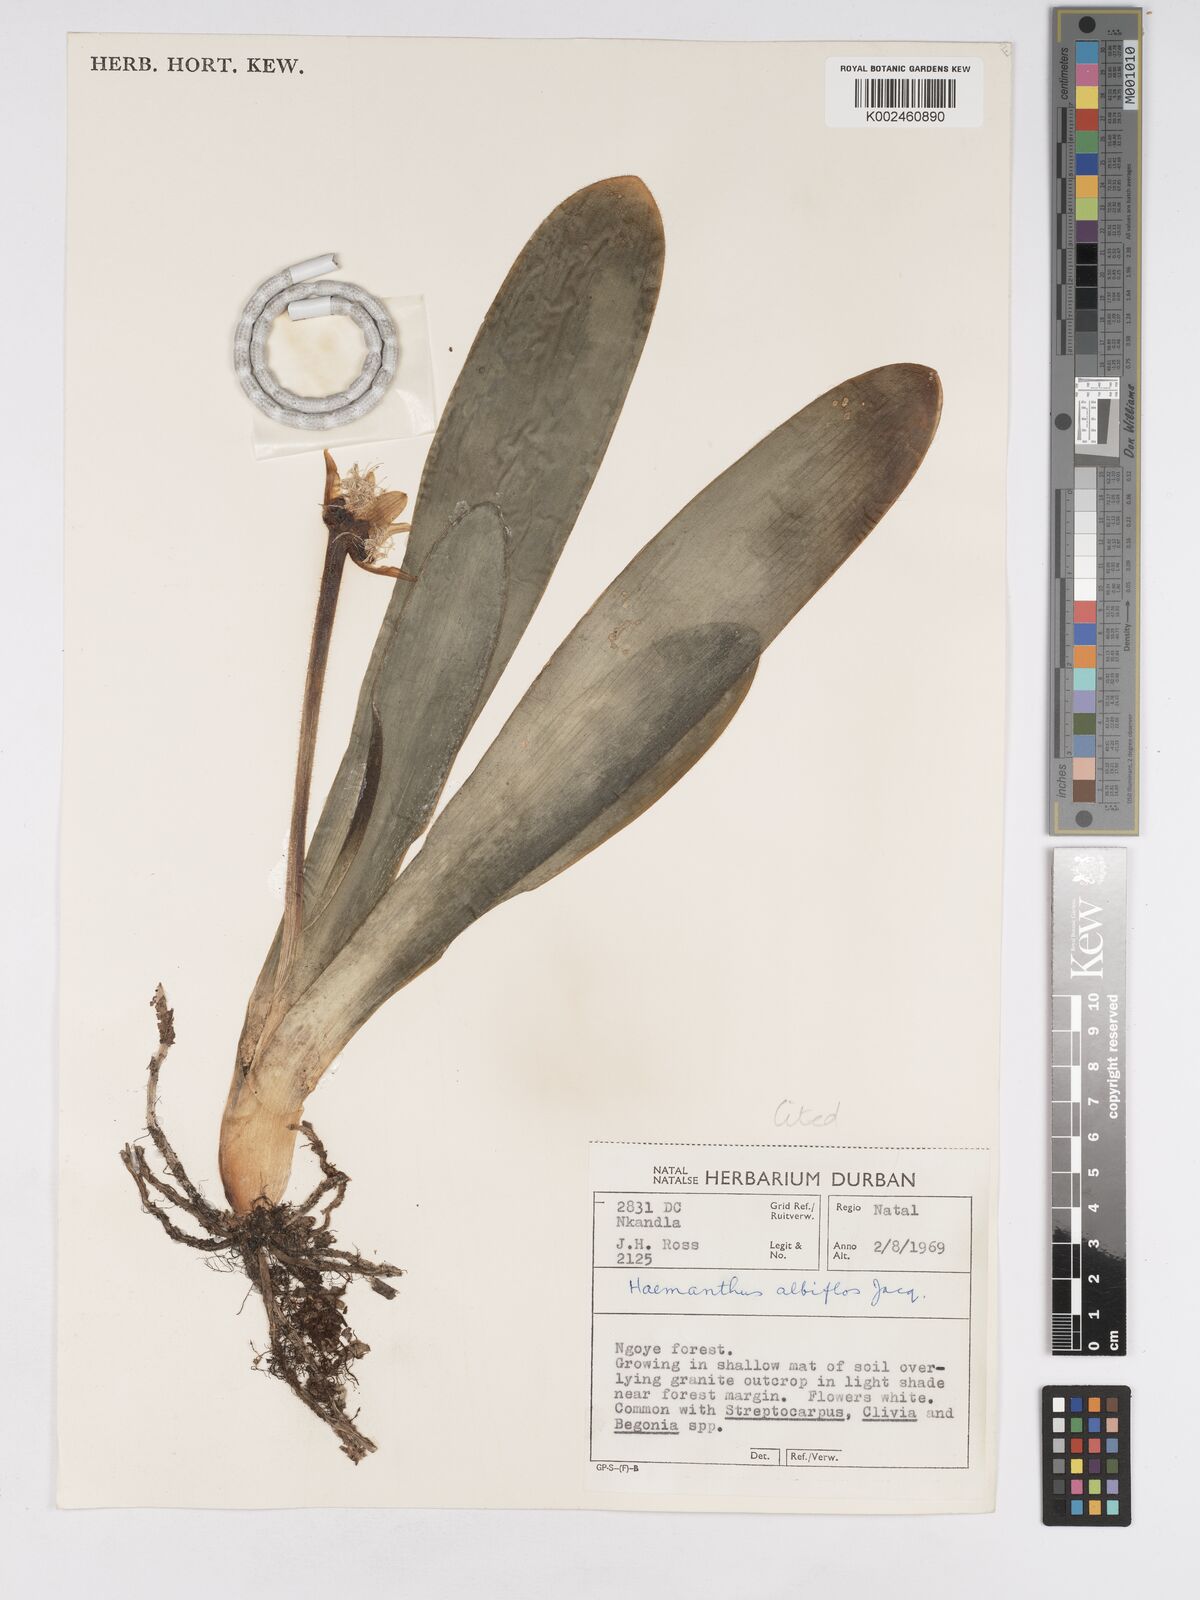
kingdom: Plantae
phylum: Tracheophyta
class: Liliopsida
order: Asparagales
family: Amaryllidaceae
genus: Haemanthus
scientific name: Haemanthus albiflos
